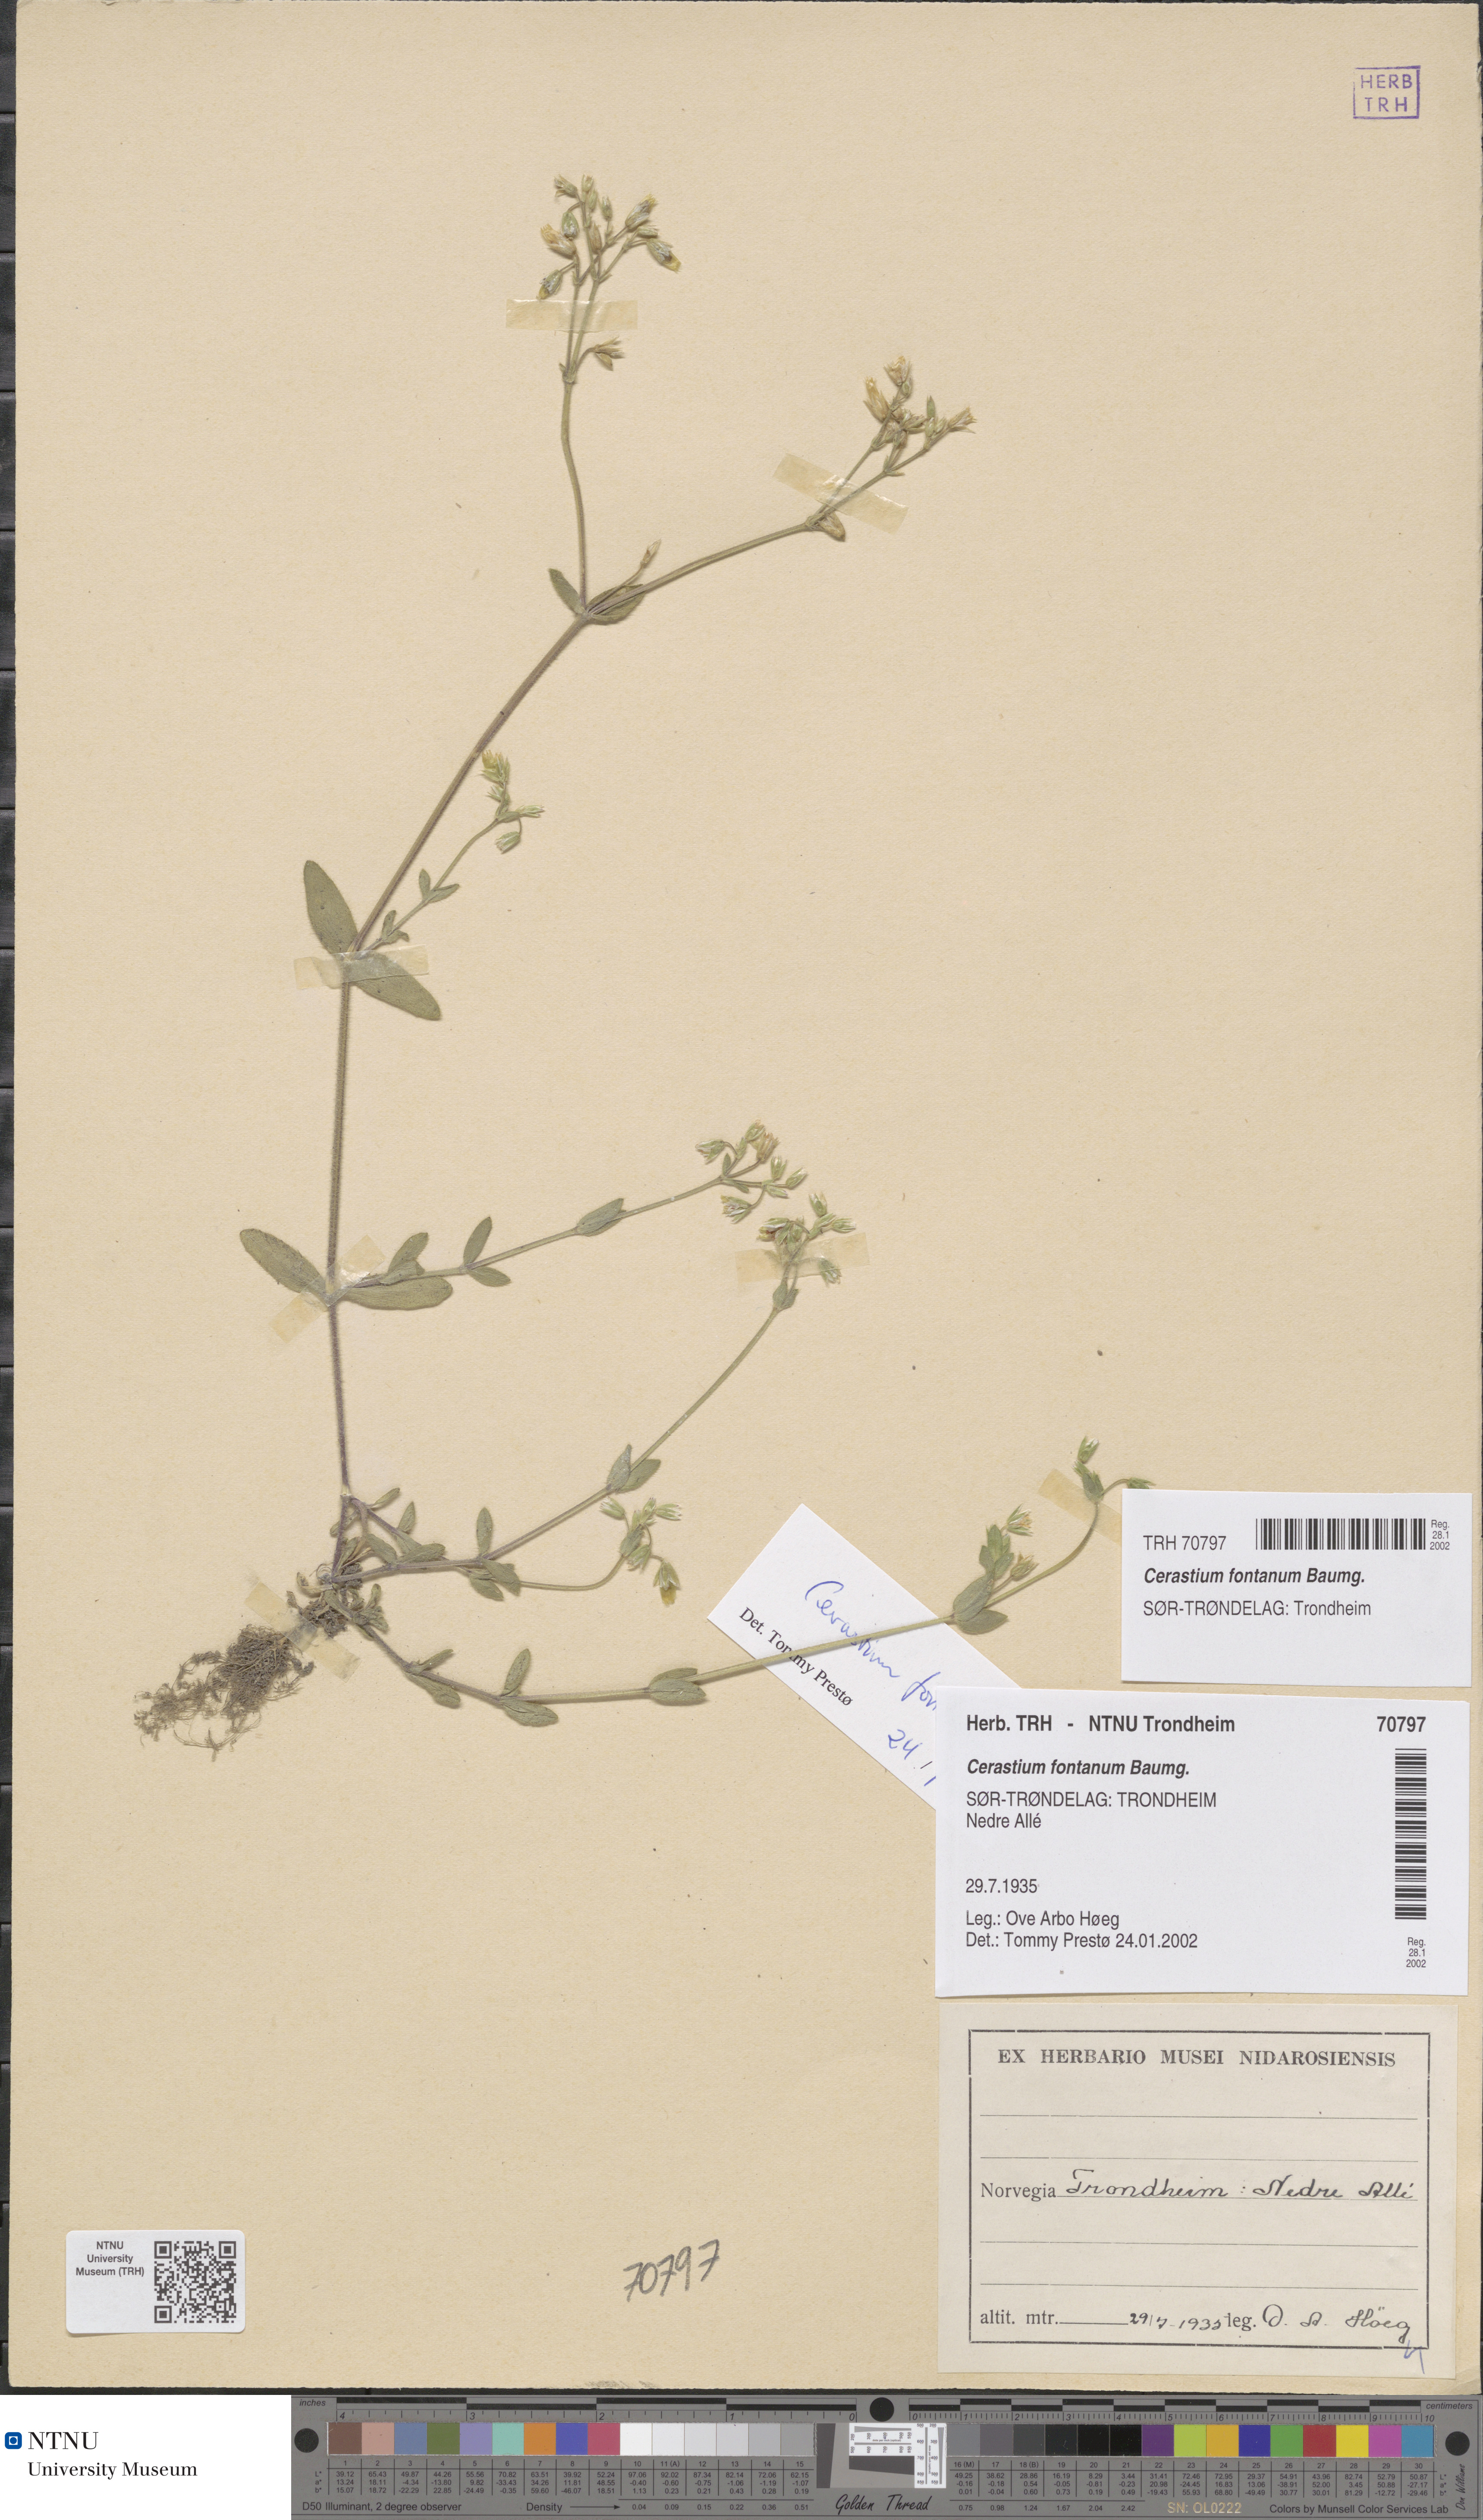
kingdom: Plantae
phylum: Tracheophyta
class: Magnoliopsida
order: Caryophyllales
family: Caryophyllaceae
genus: Cerastium
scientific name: Cerastium fontanum
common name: Common mouse-ear
